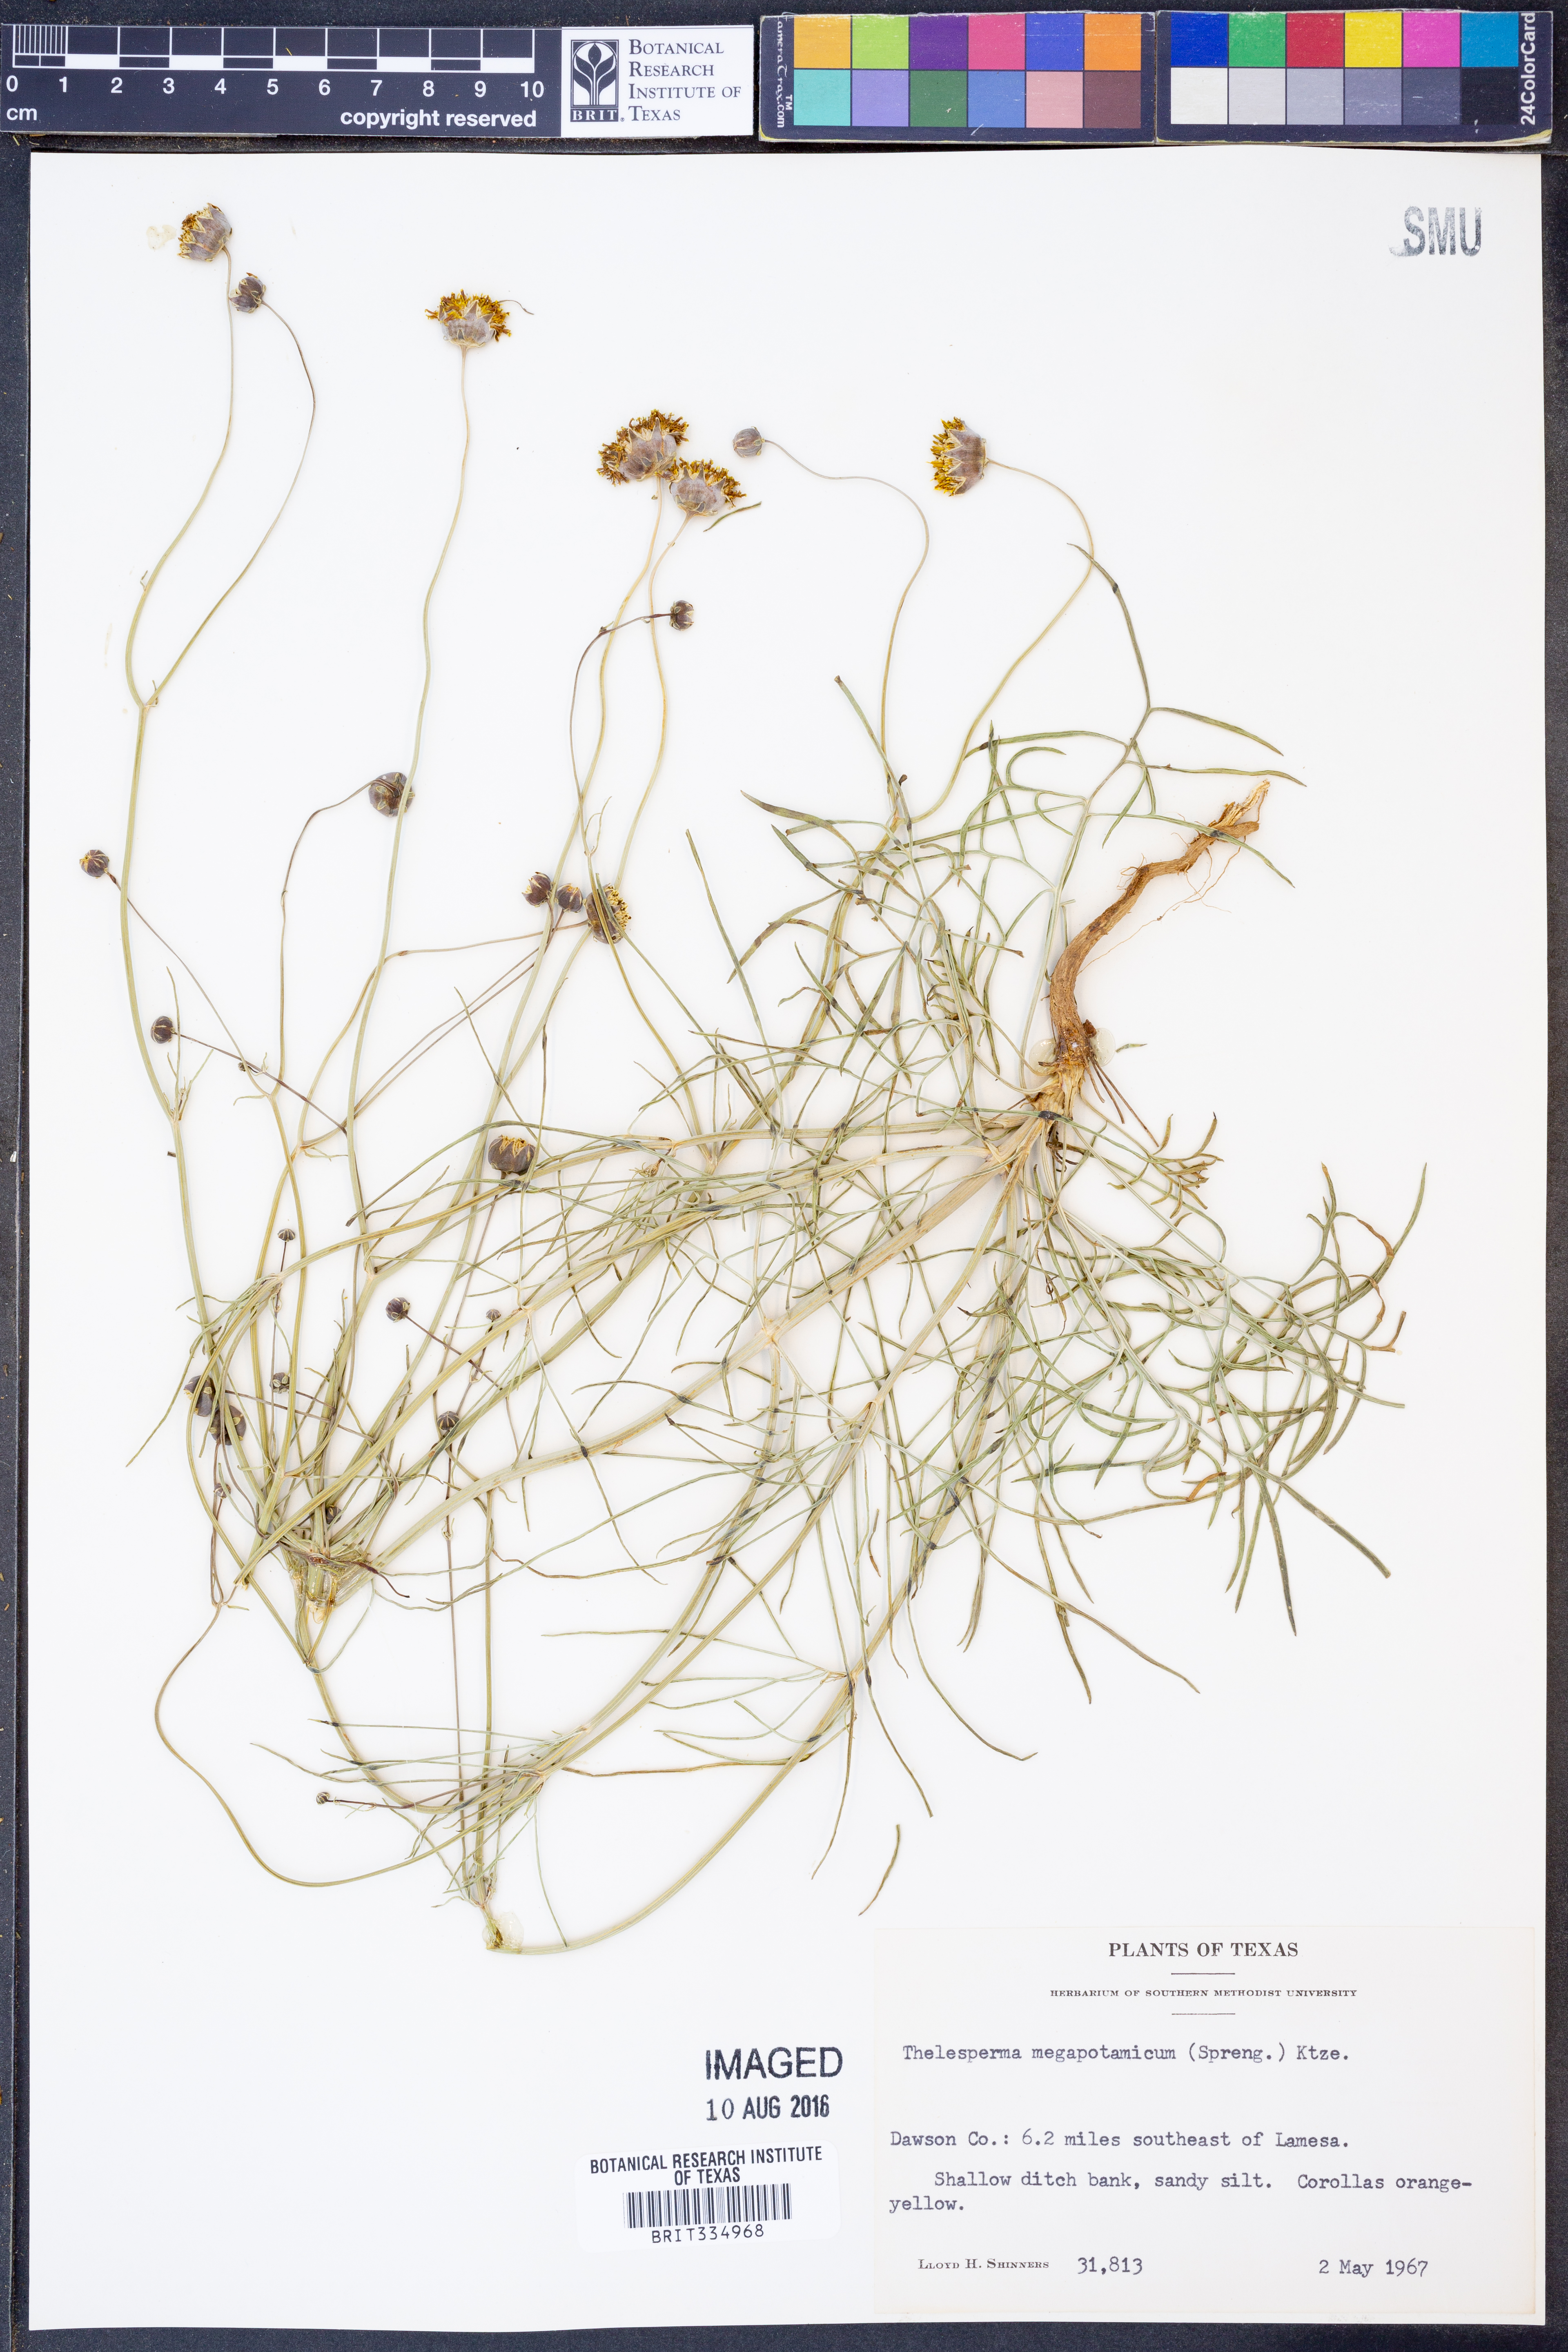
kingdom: Plantae
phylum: Tracheophyta
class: Magnoliopsida
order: Asterales
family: Asteraceae
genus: Thelesperma
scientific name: Thelesperma megapotamicum
